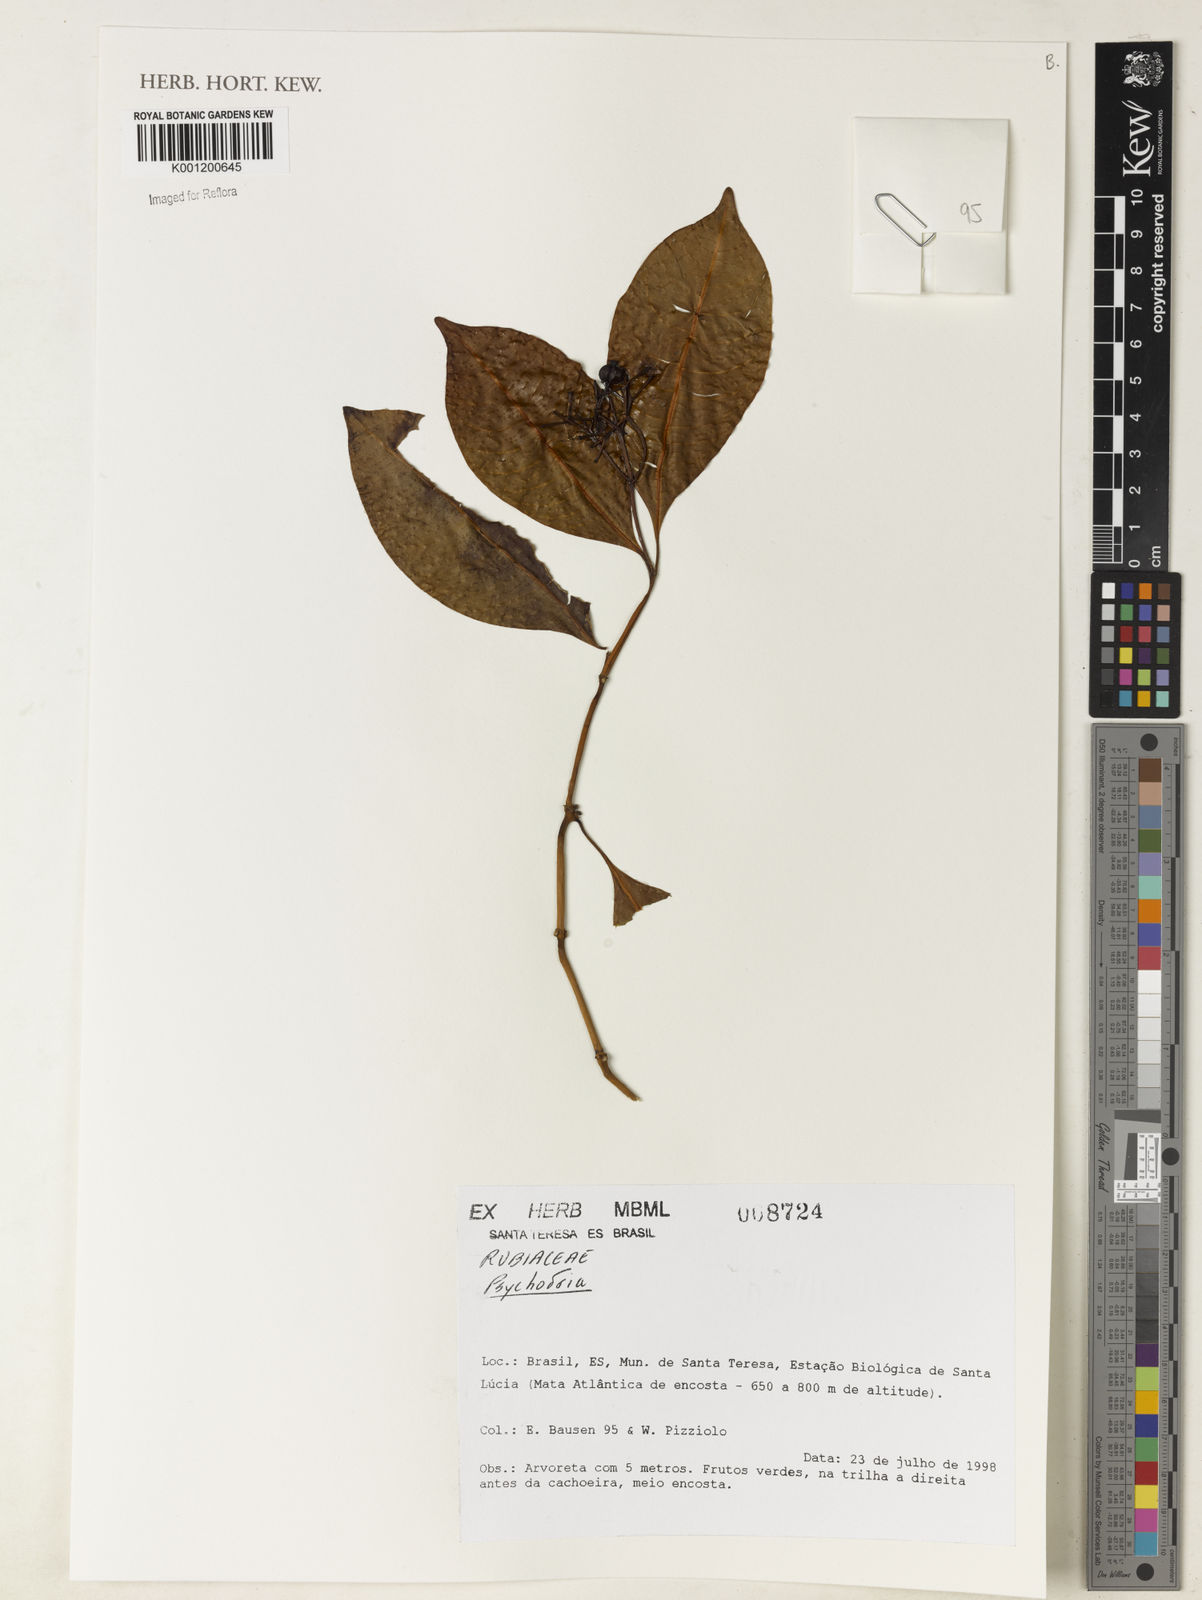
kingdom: Plantae
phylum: Tracheophyta
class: Magnoliopsida
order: Gentianales
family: Rubiaceae
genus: Psychotria
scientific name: Psychotria
